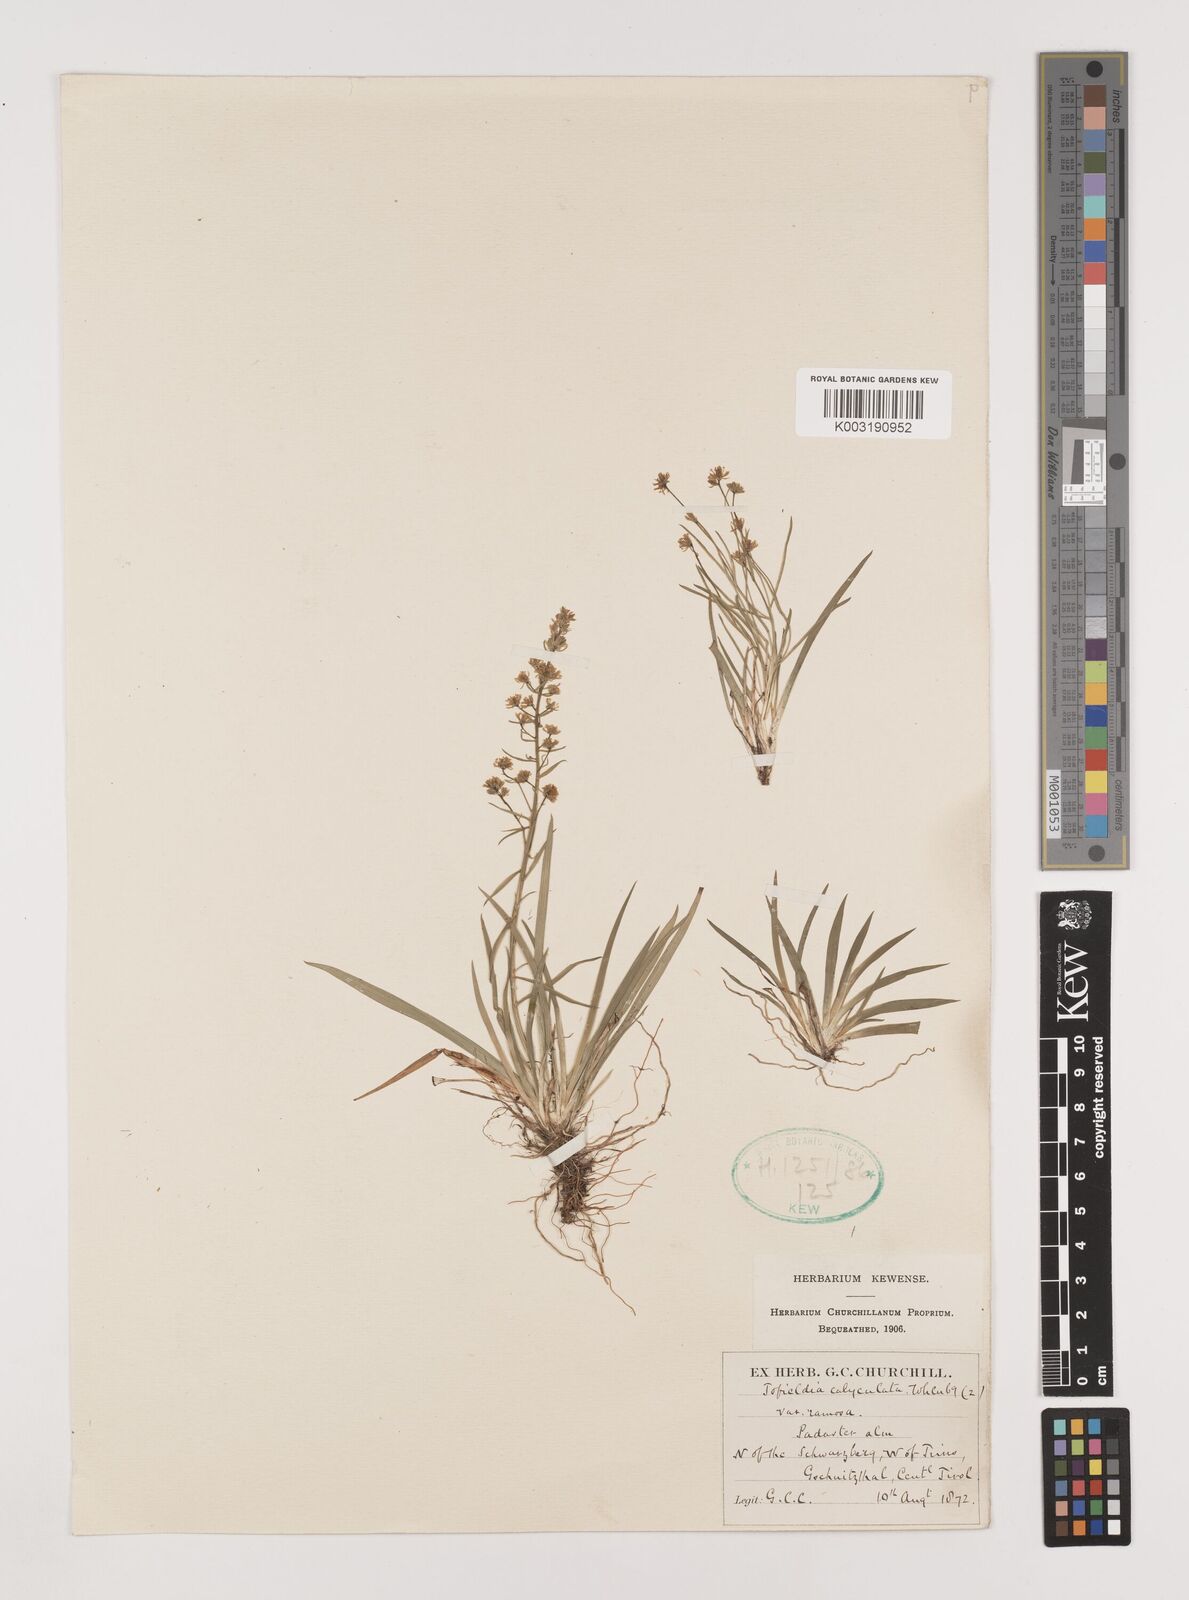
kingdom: Plantae
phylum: Tracheophyta
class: Liliopsida
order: Alismatales
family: Tofieldiaceae
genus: Tofieldia
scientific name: Tofieldia calyculata
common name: German-asphodel
